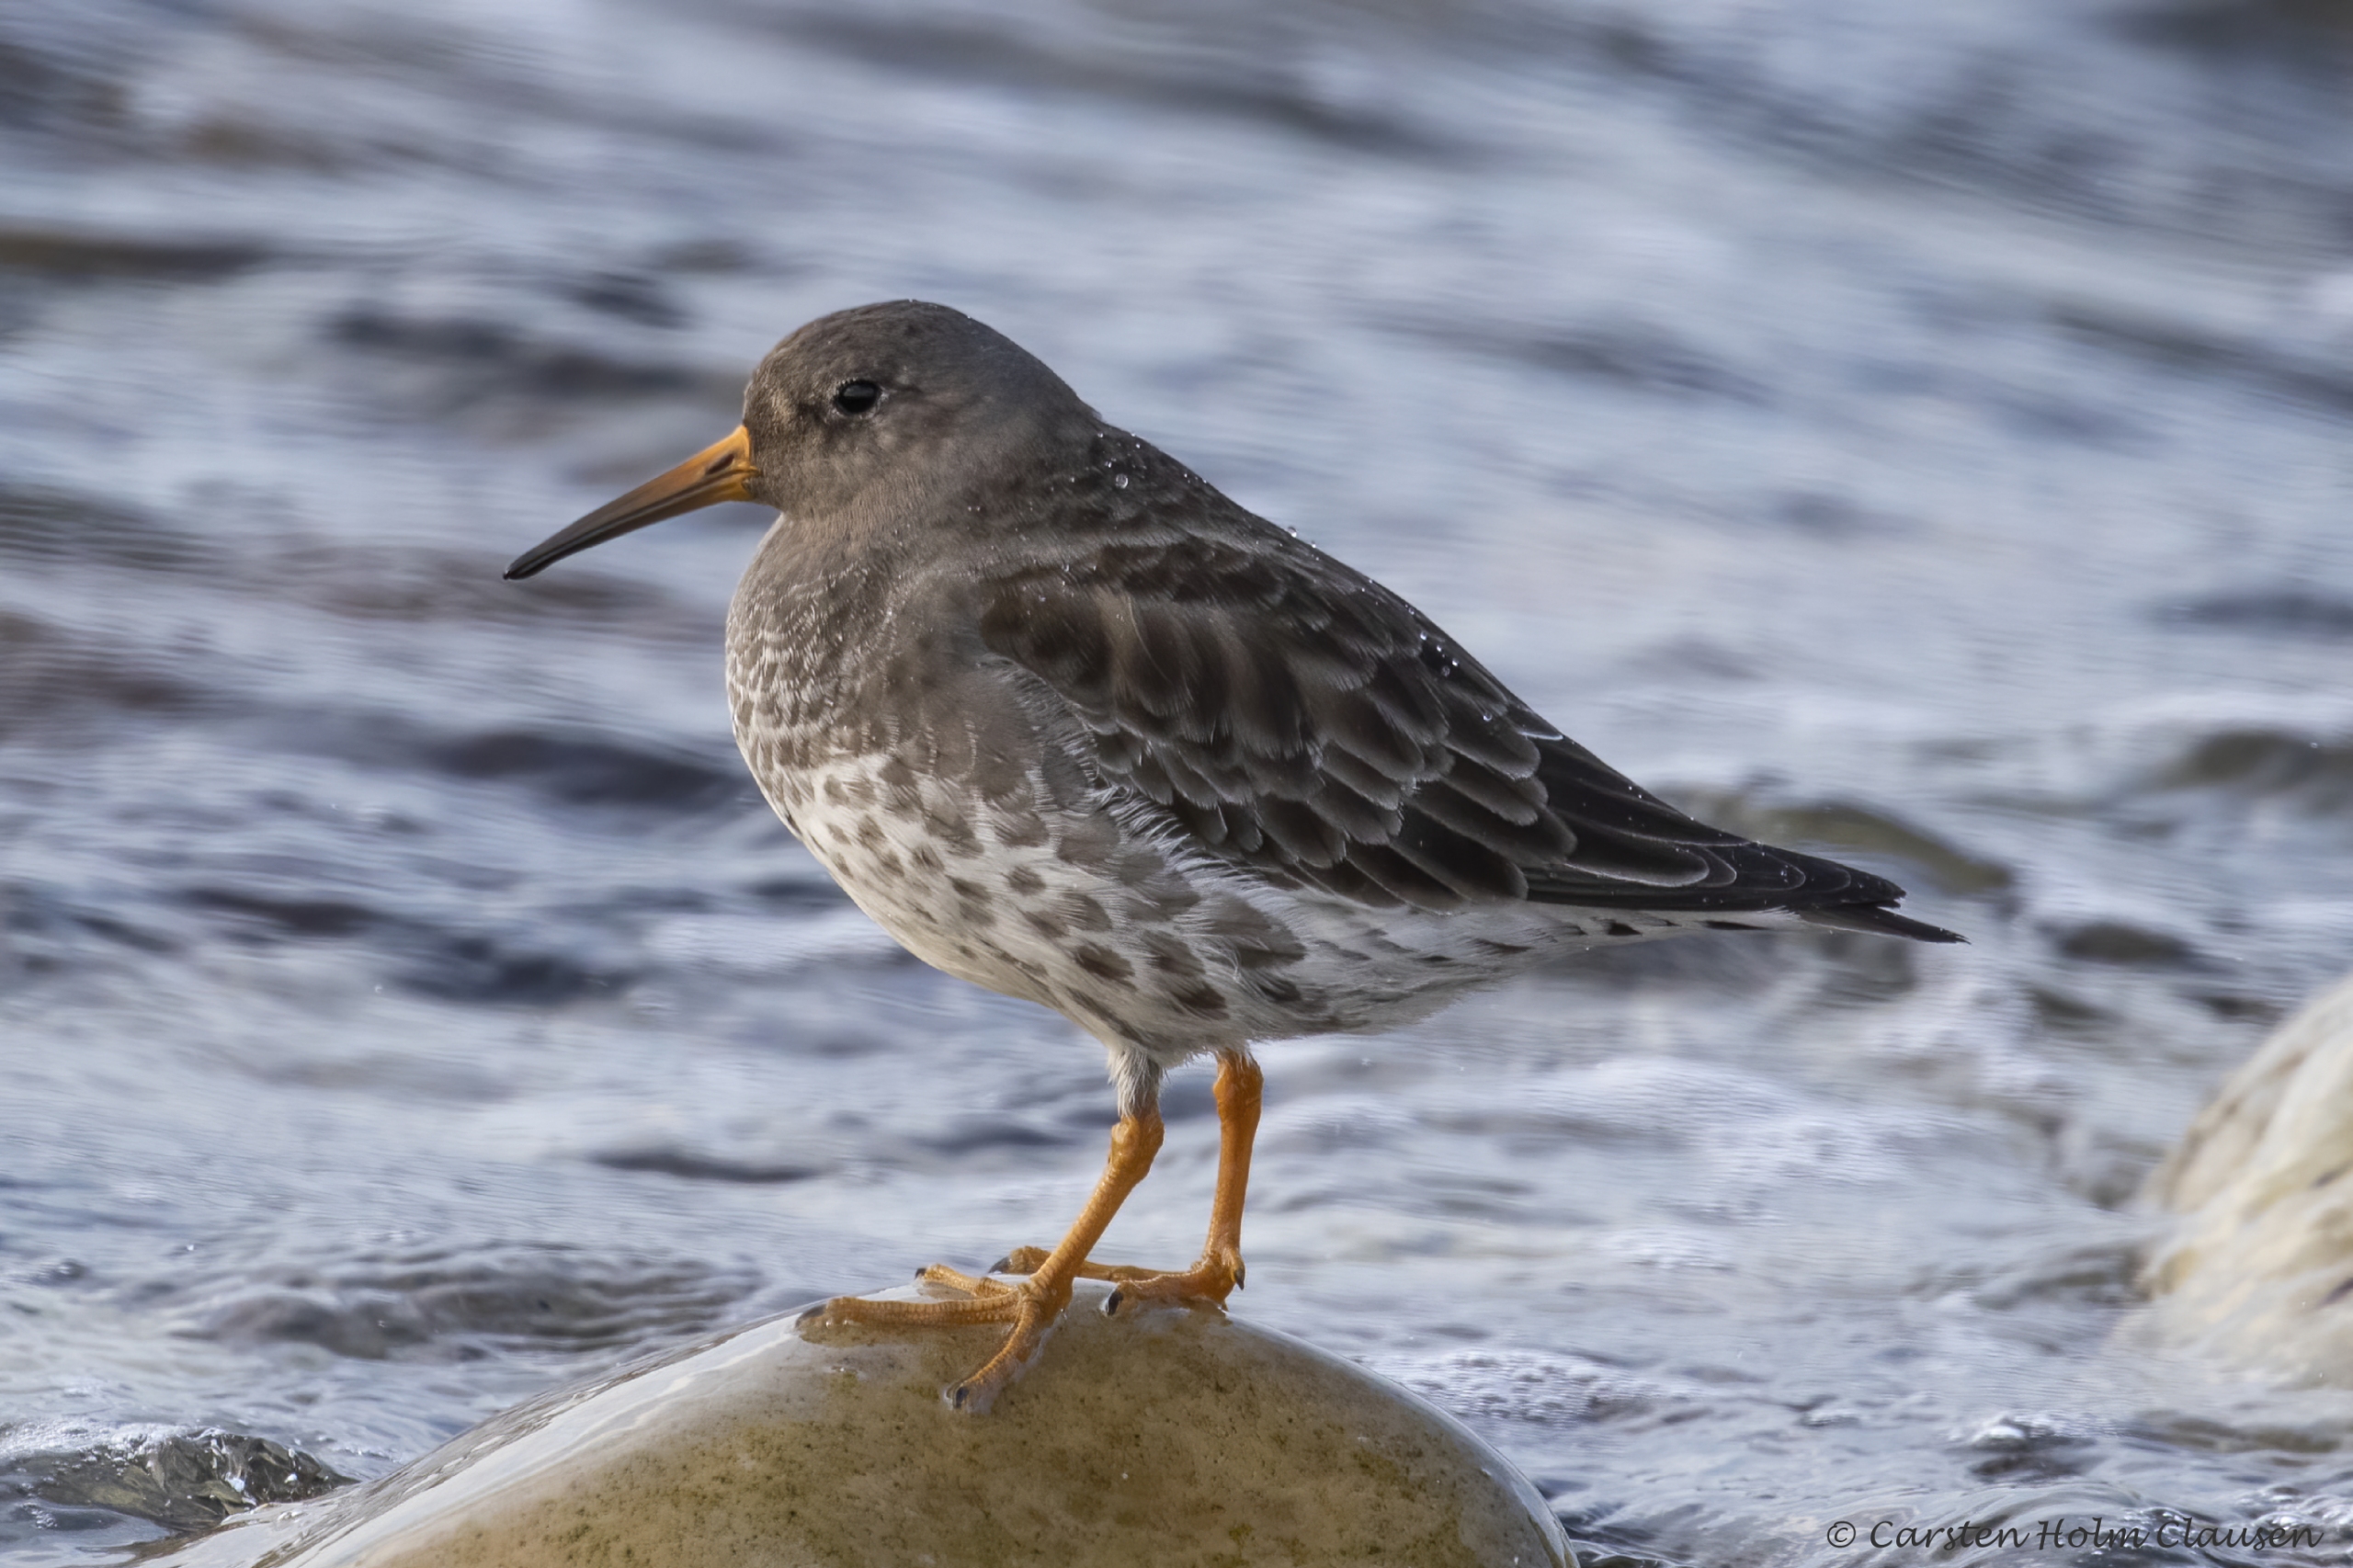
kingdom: Animalia
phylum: Chordata
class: Aves
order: Charadriiformes
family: Scolopacidae
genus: Calidris
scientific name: Calidris maritima
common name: Sortgrå ryle
